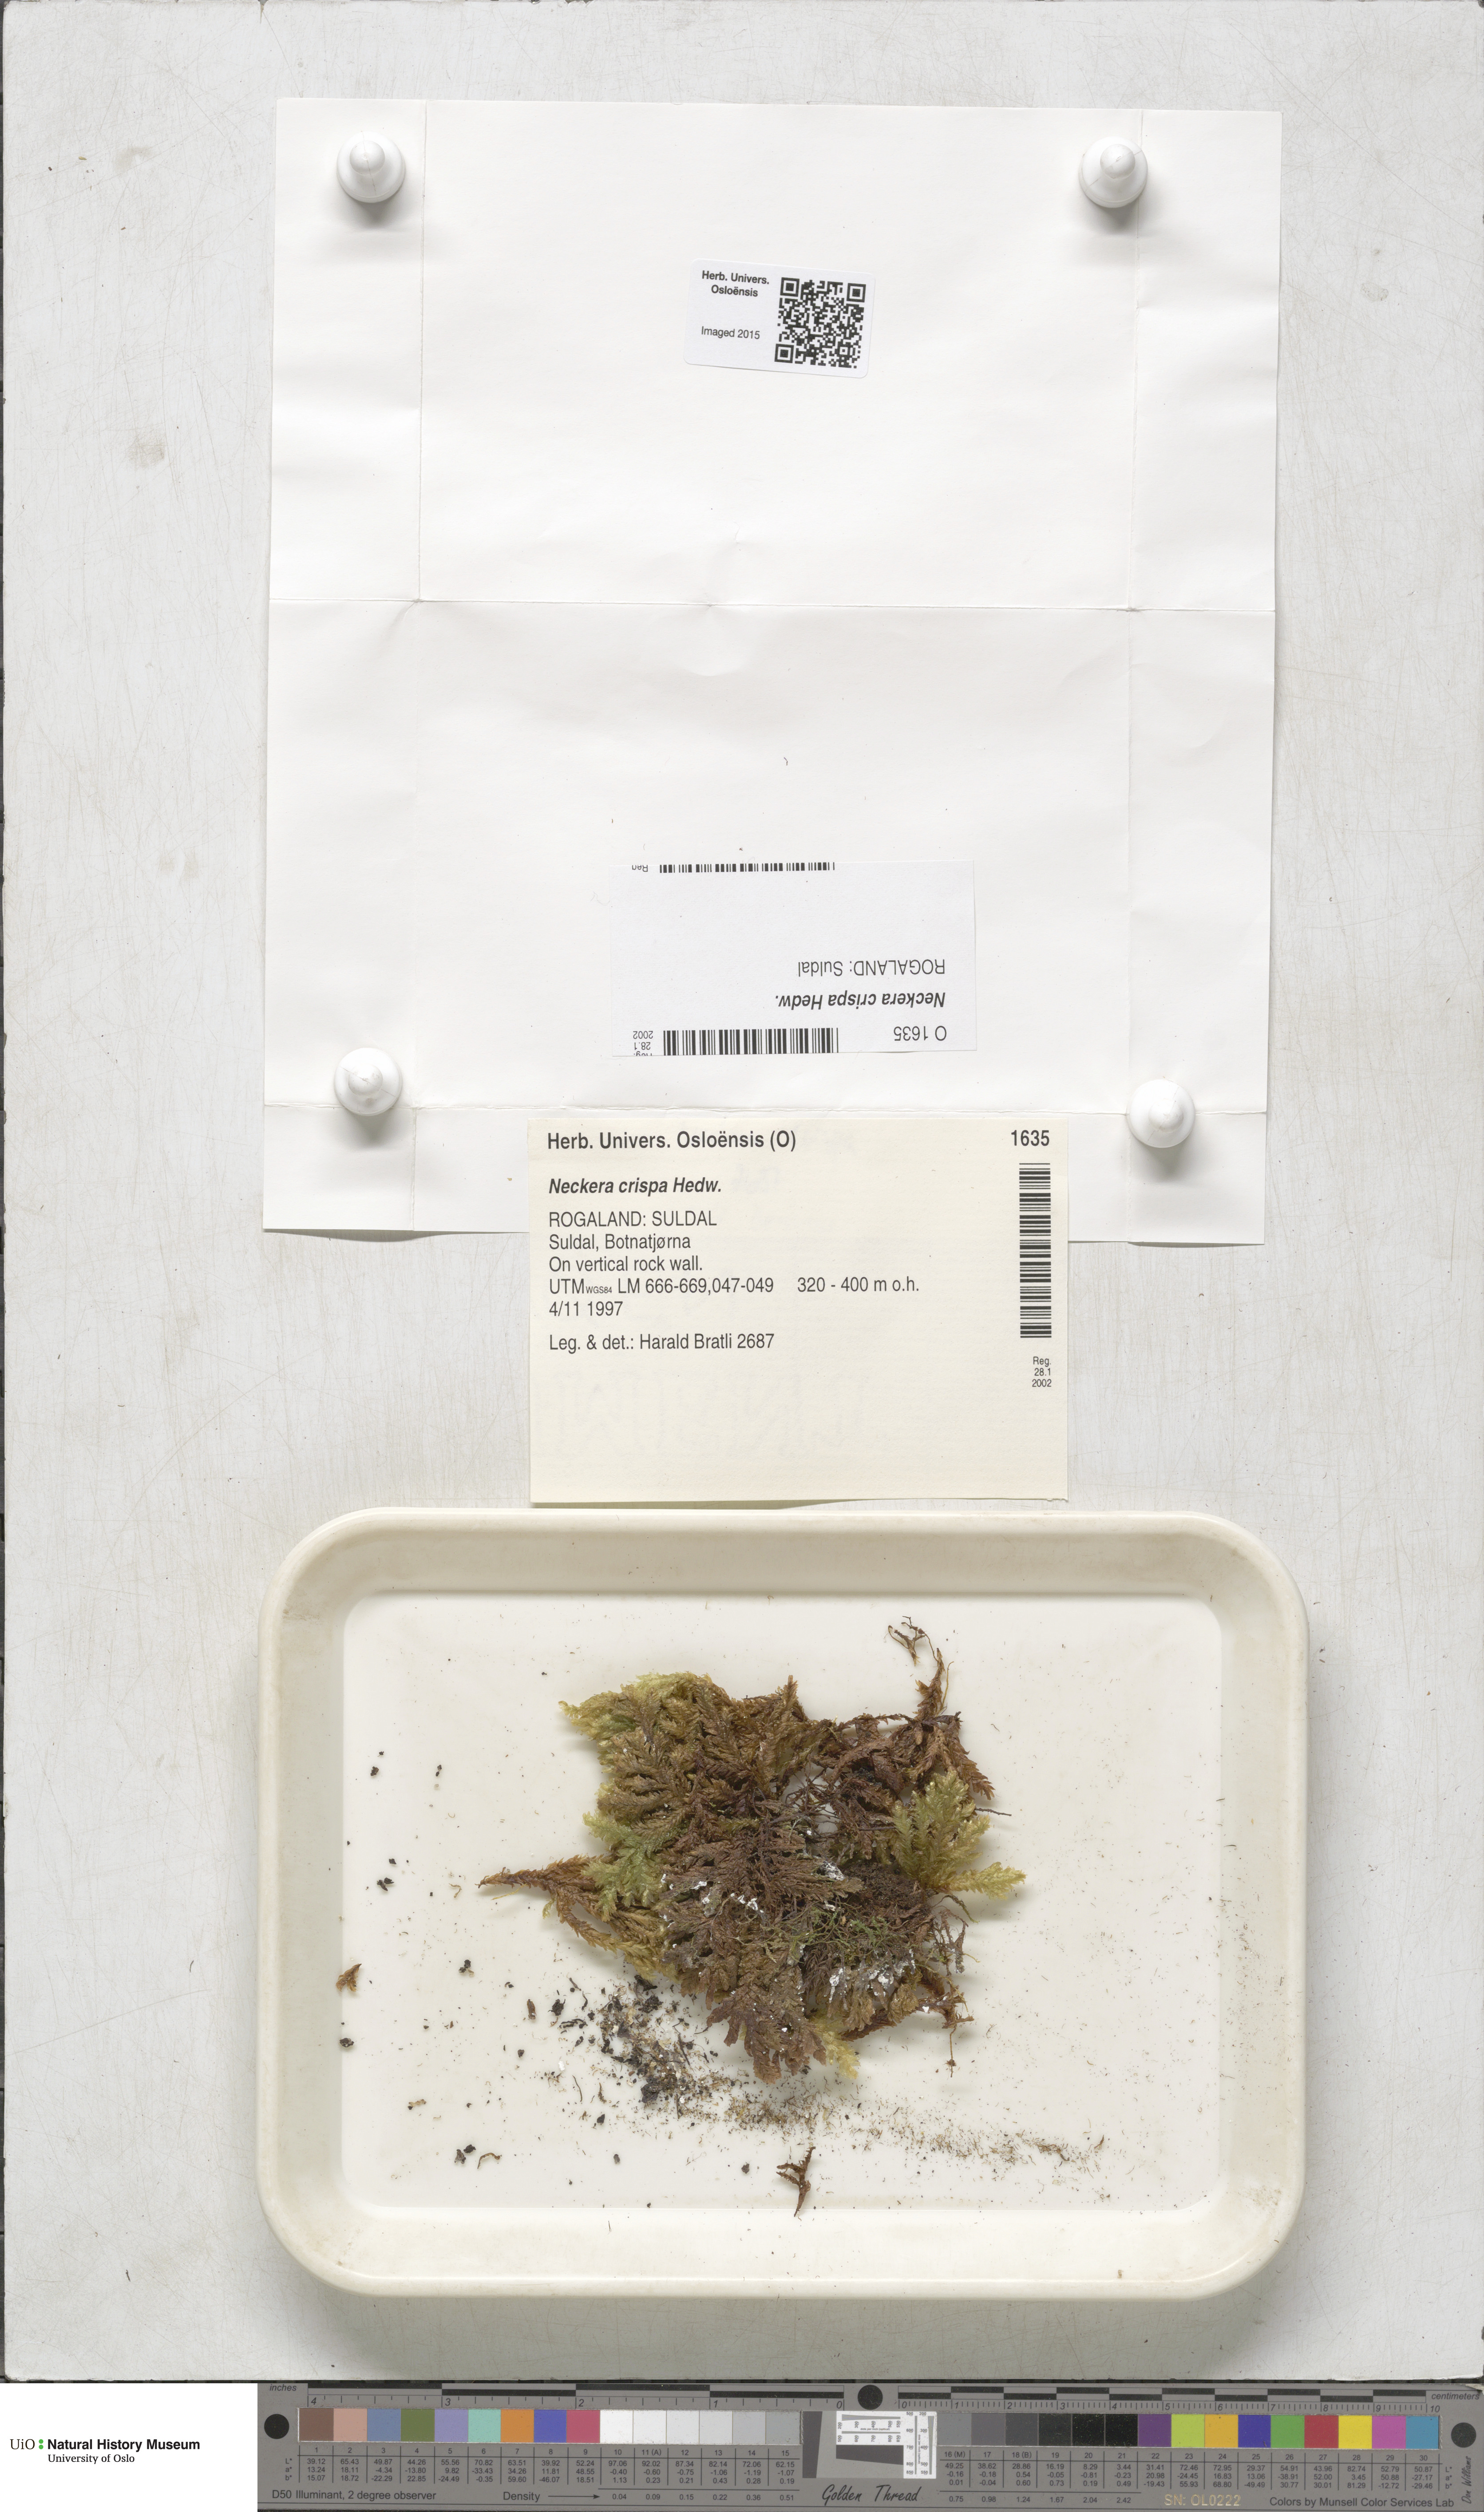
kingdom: Plantae
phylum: Bryophyta
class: Bryopsida
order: Hypnales
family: Neckeraceae
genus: Exsertotheca
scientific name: Exsertotheca crispa
